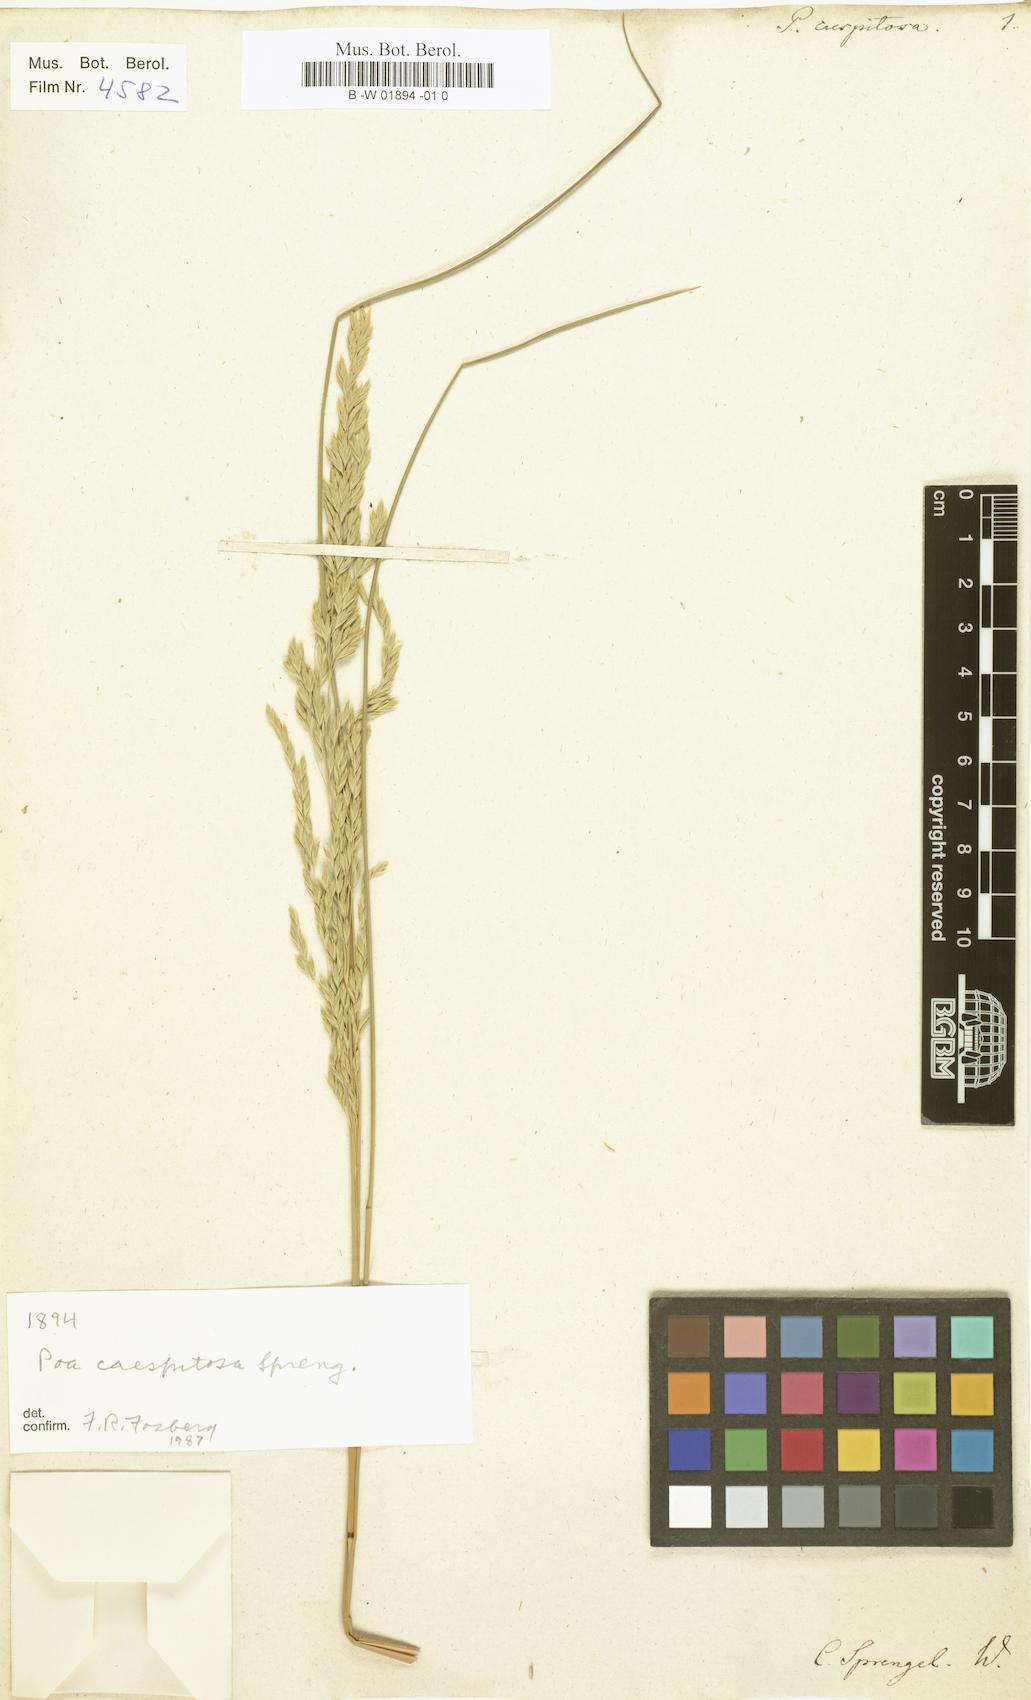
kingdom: Plantae
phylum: Tracheophyta
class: Liliopsida
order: Poales
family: Poaceae
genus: Poa
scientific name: Poa caespitosa
